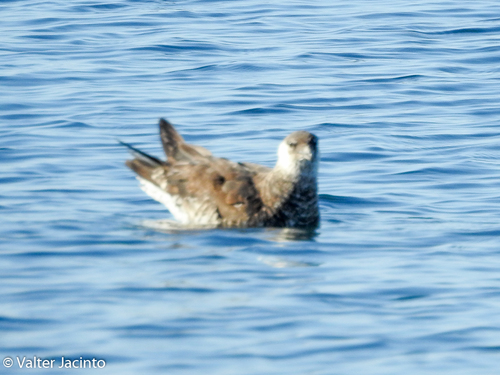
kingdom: Animalia
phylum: Chordata
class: Aves
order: Charadriiformes
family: Stercorariidae
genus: Stercorarius
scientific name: Stercorarius pomarinus
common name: Pomarine jaeger
